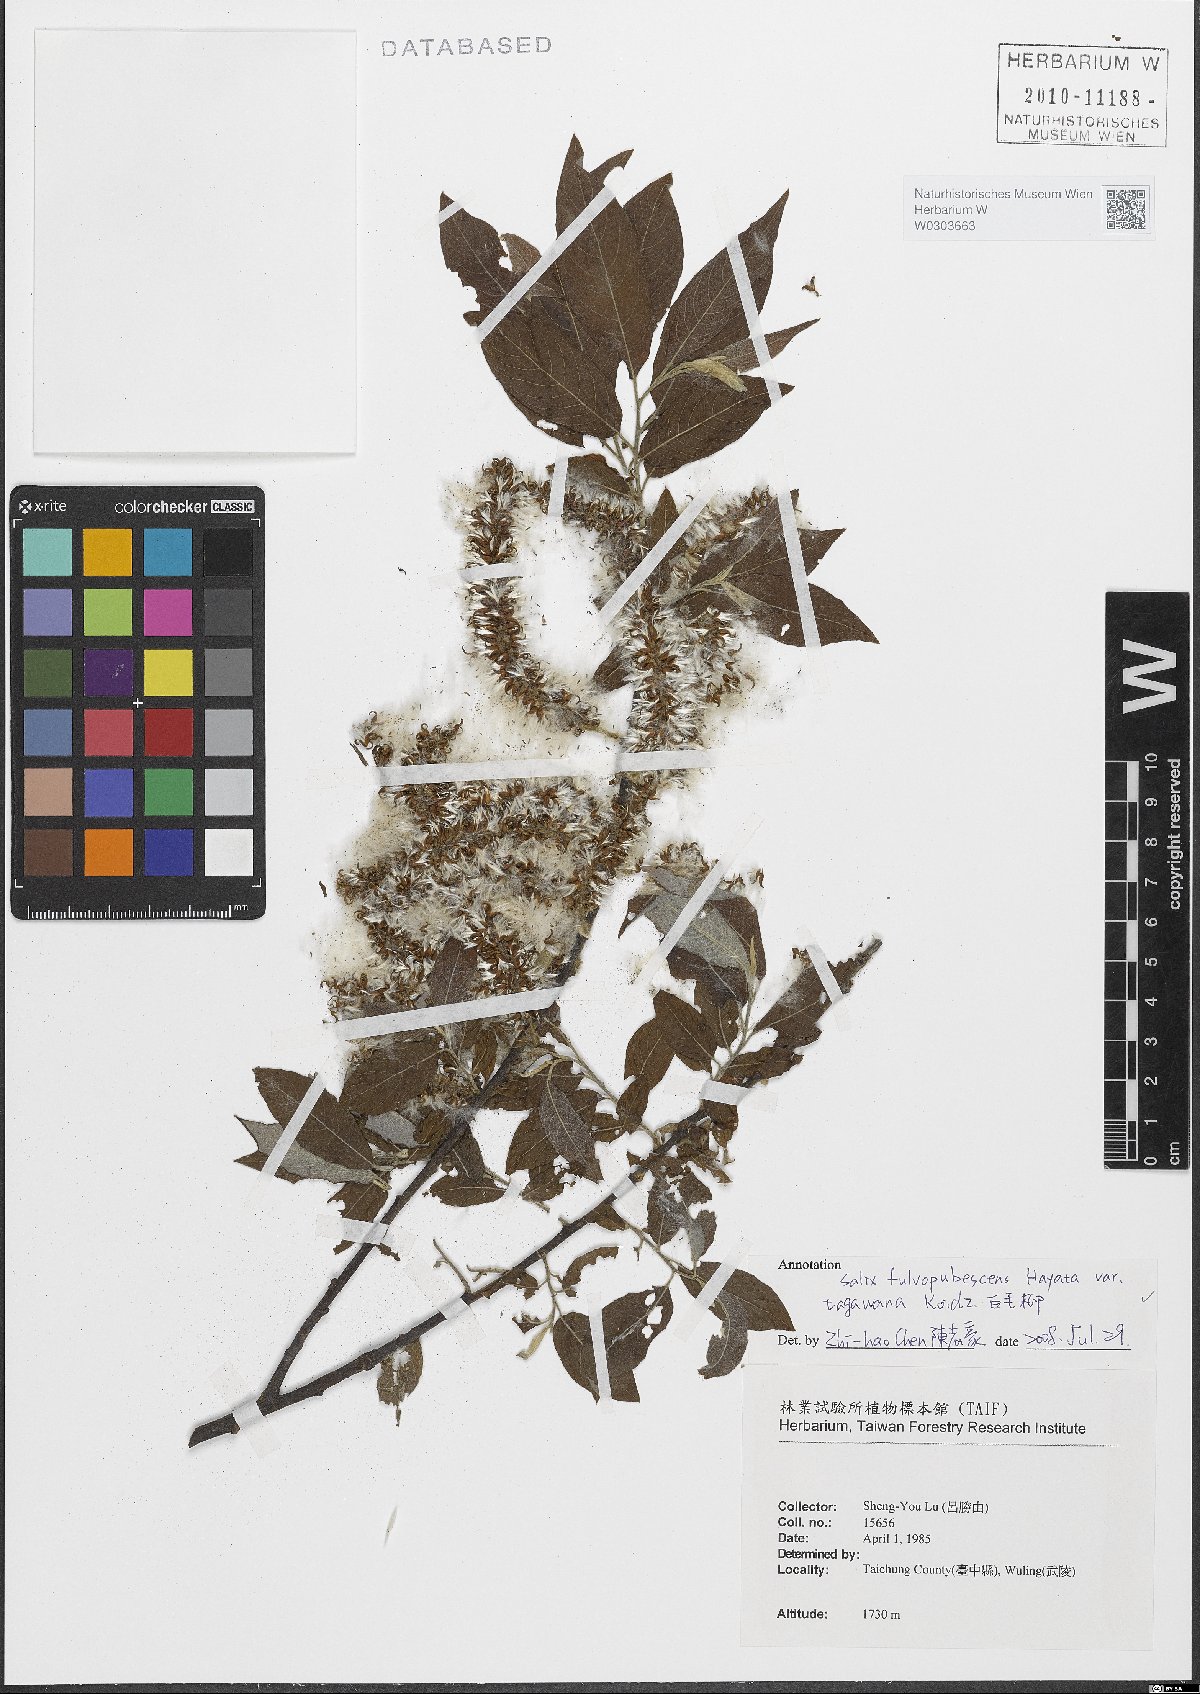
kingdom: Plantae
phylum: Tracheophyta
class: Magnoliopsida
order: Malpighiales
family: Salicaceae
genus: Salix
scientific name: Salix tagawana
